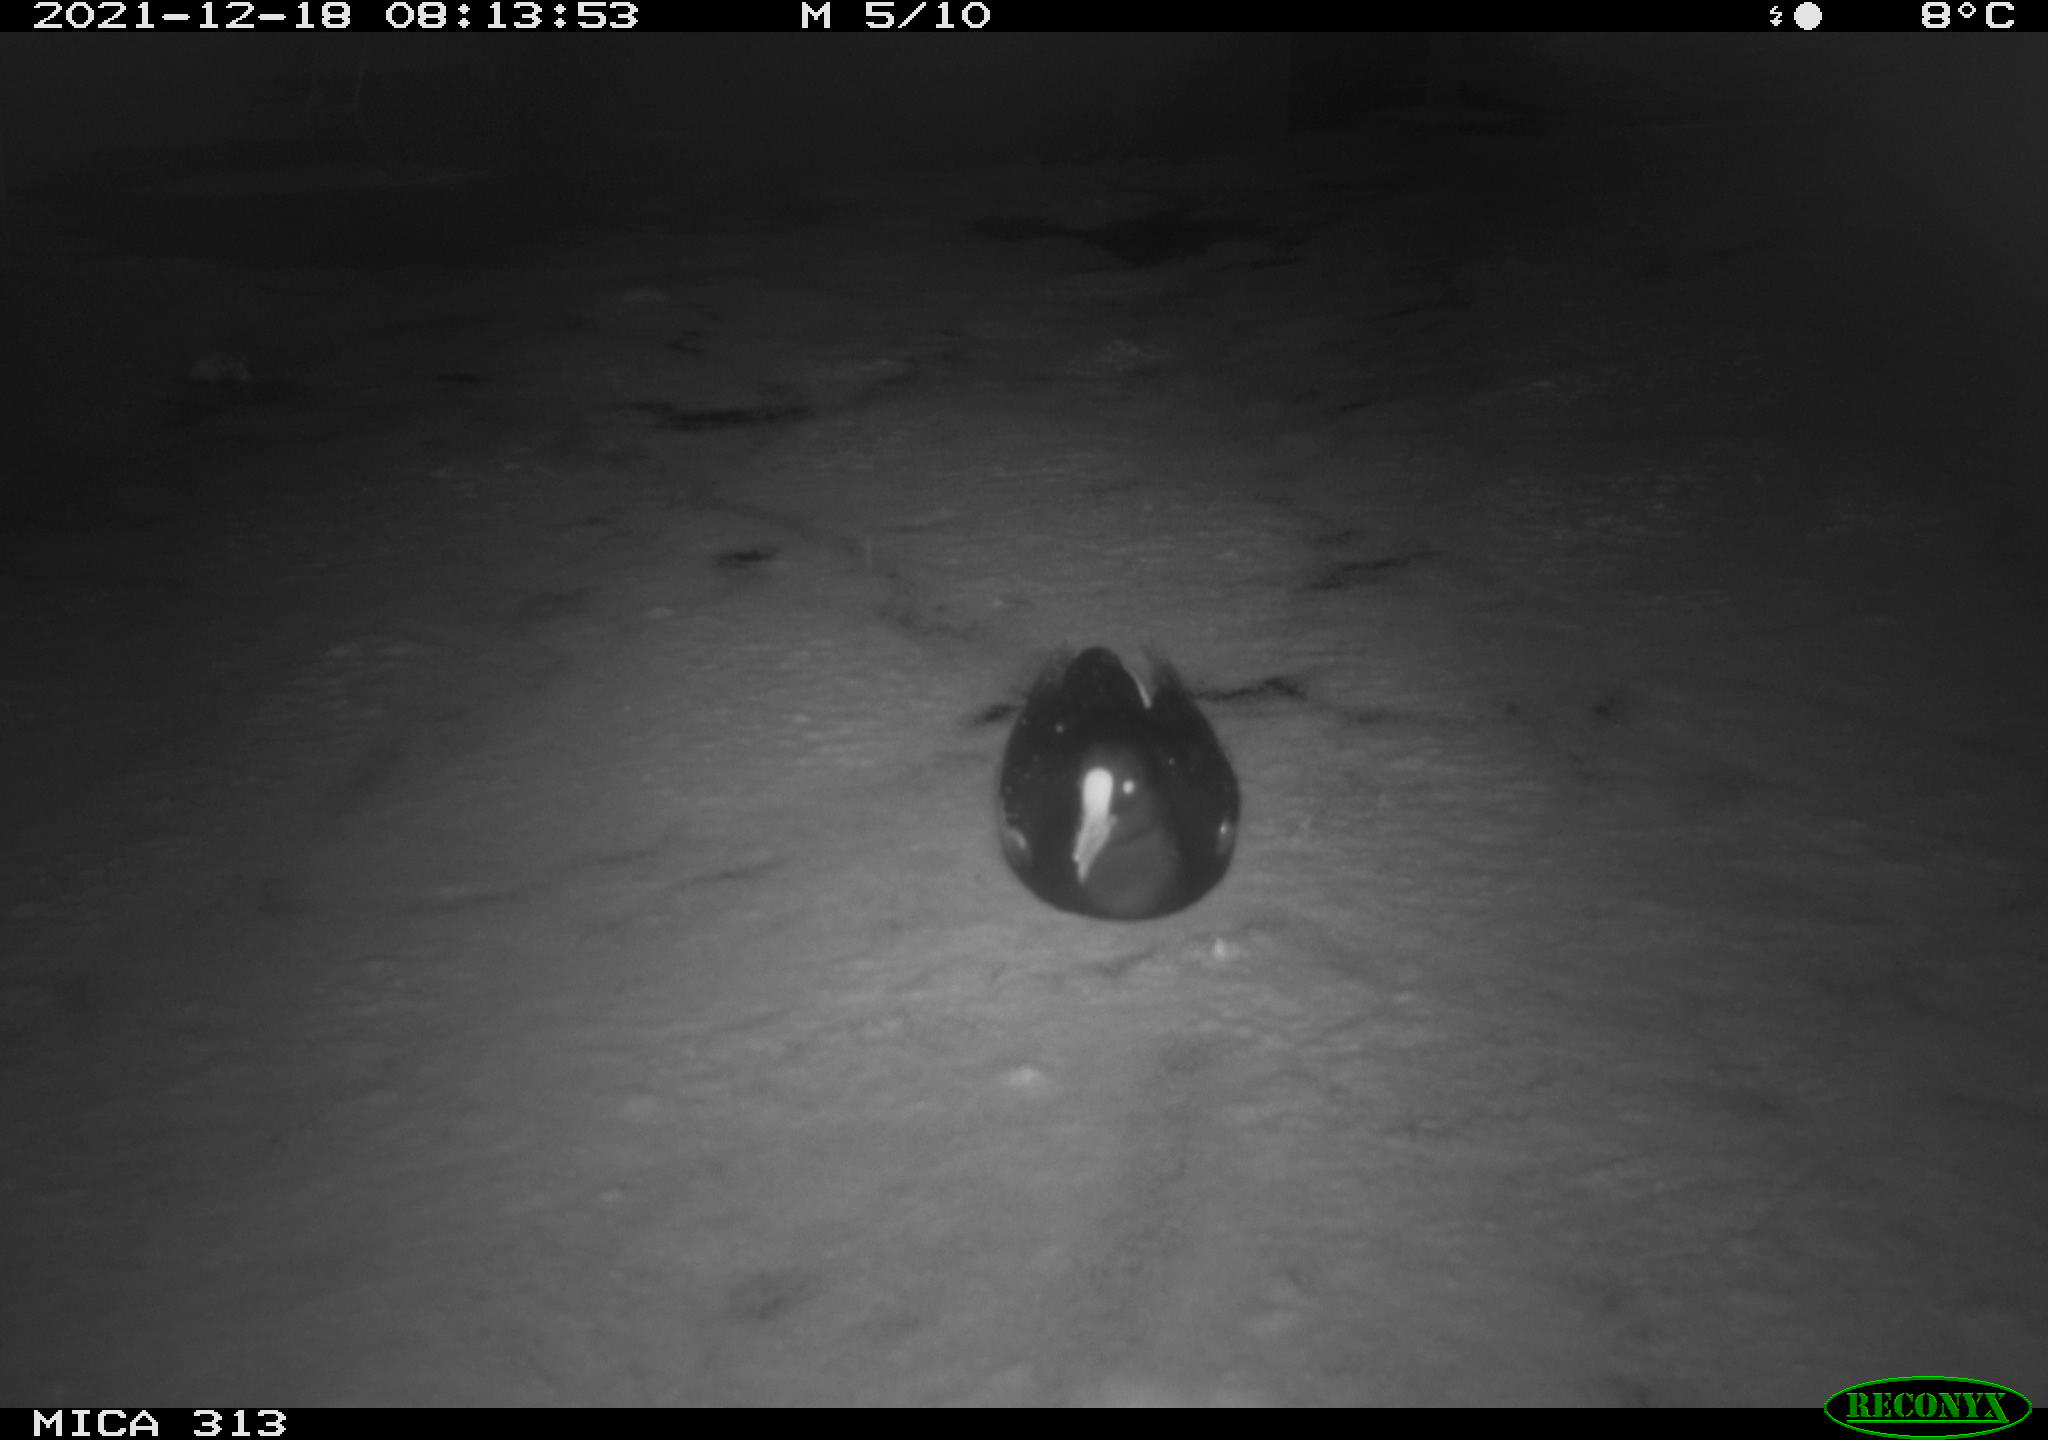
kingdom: Animalia
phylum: Chordata
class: Aves
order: Gruiformes
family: Rallidae
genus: Fulica
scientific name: Fulica atra
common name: Eurasian coot
